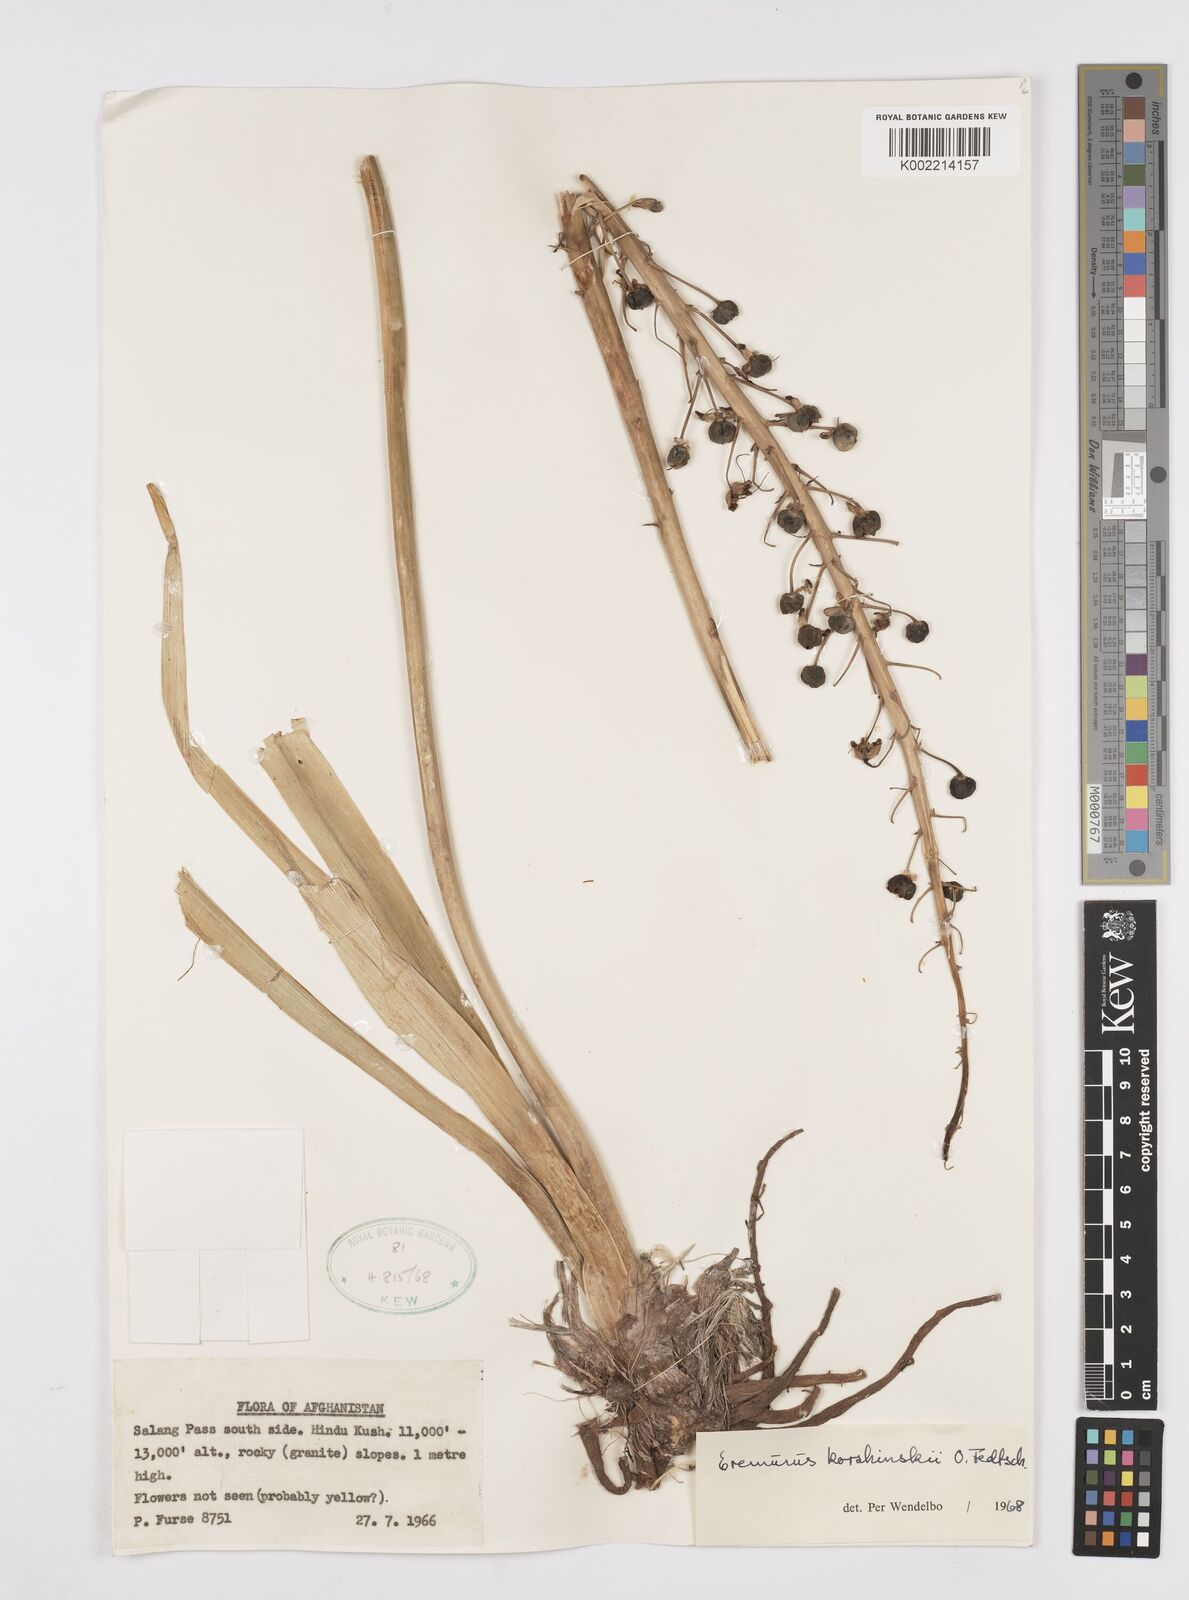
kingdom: Plantae
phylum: Tracheophyta
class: Liliopsida
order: Asparagales
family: Asphodelaceae
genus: Eremurus
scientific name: Eremurus korshinskyi
